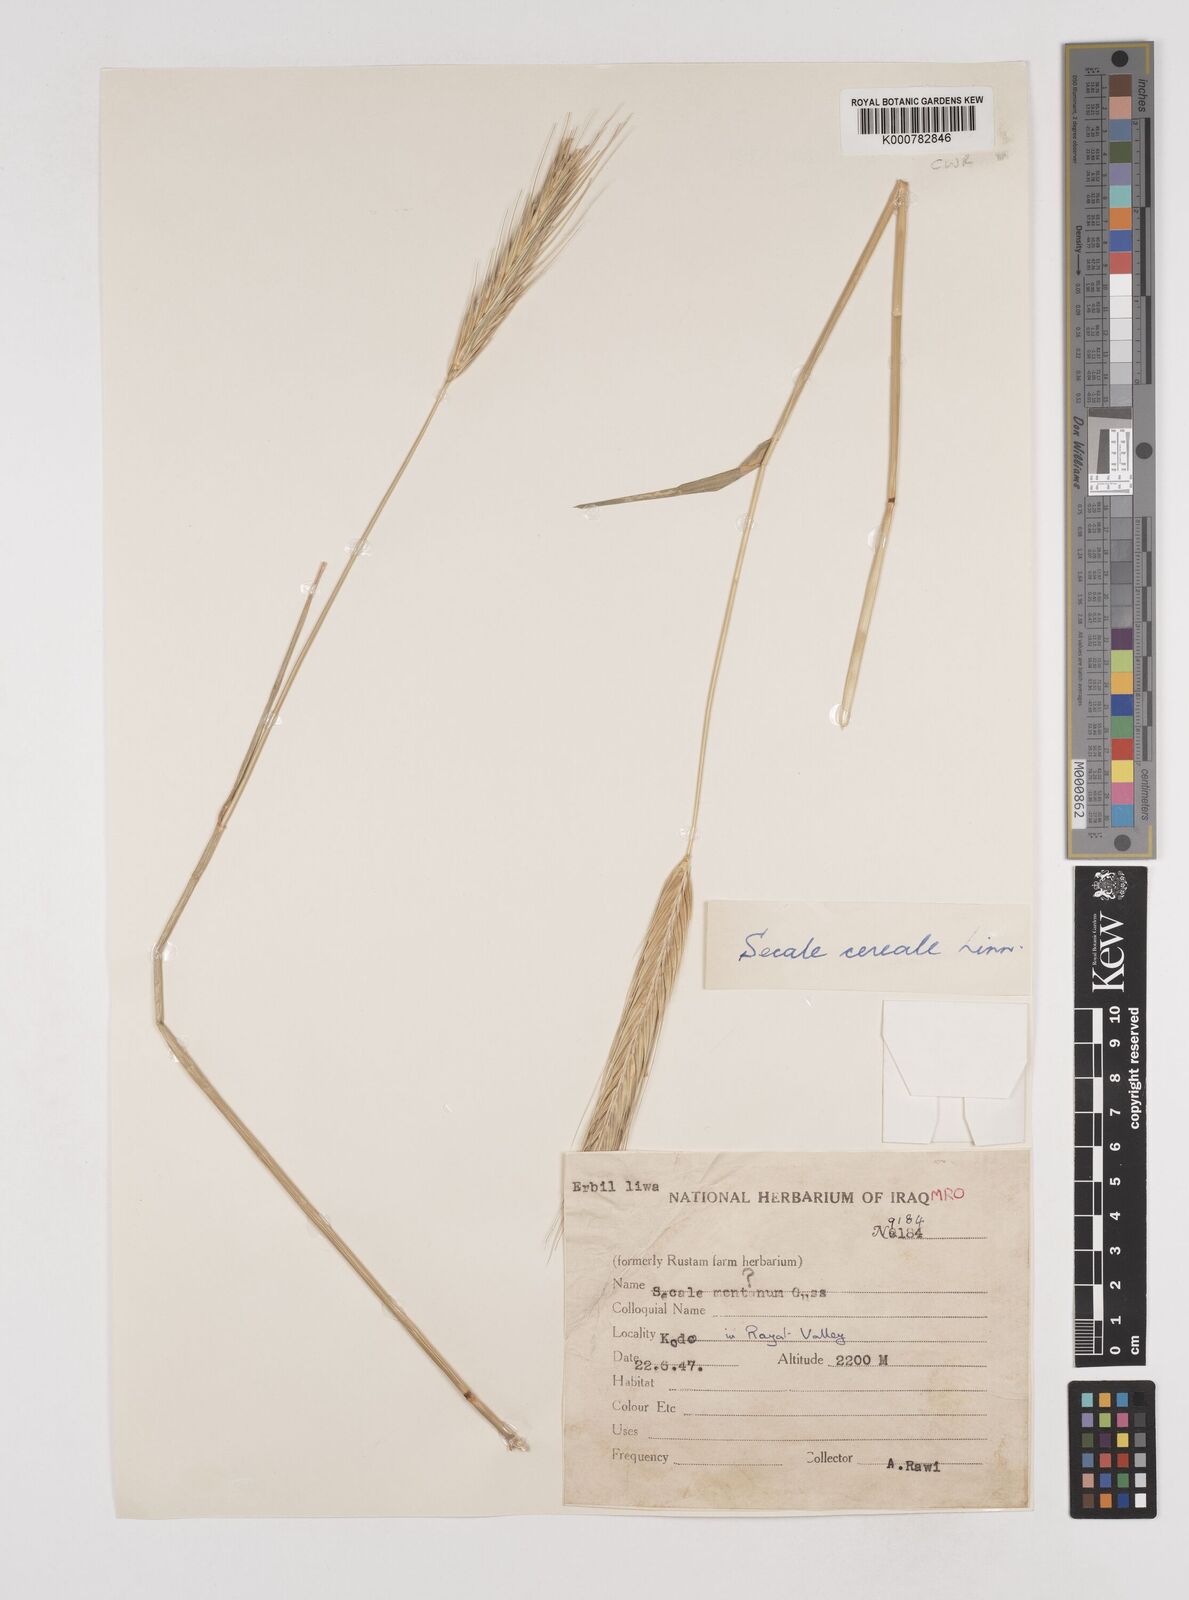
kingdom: Plantae
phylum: Tracheophyta
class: Liliopsida
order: Poales
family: Poaceae
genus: Secale
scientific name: Secale cereale
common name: Rye
